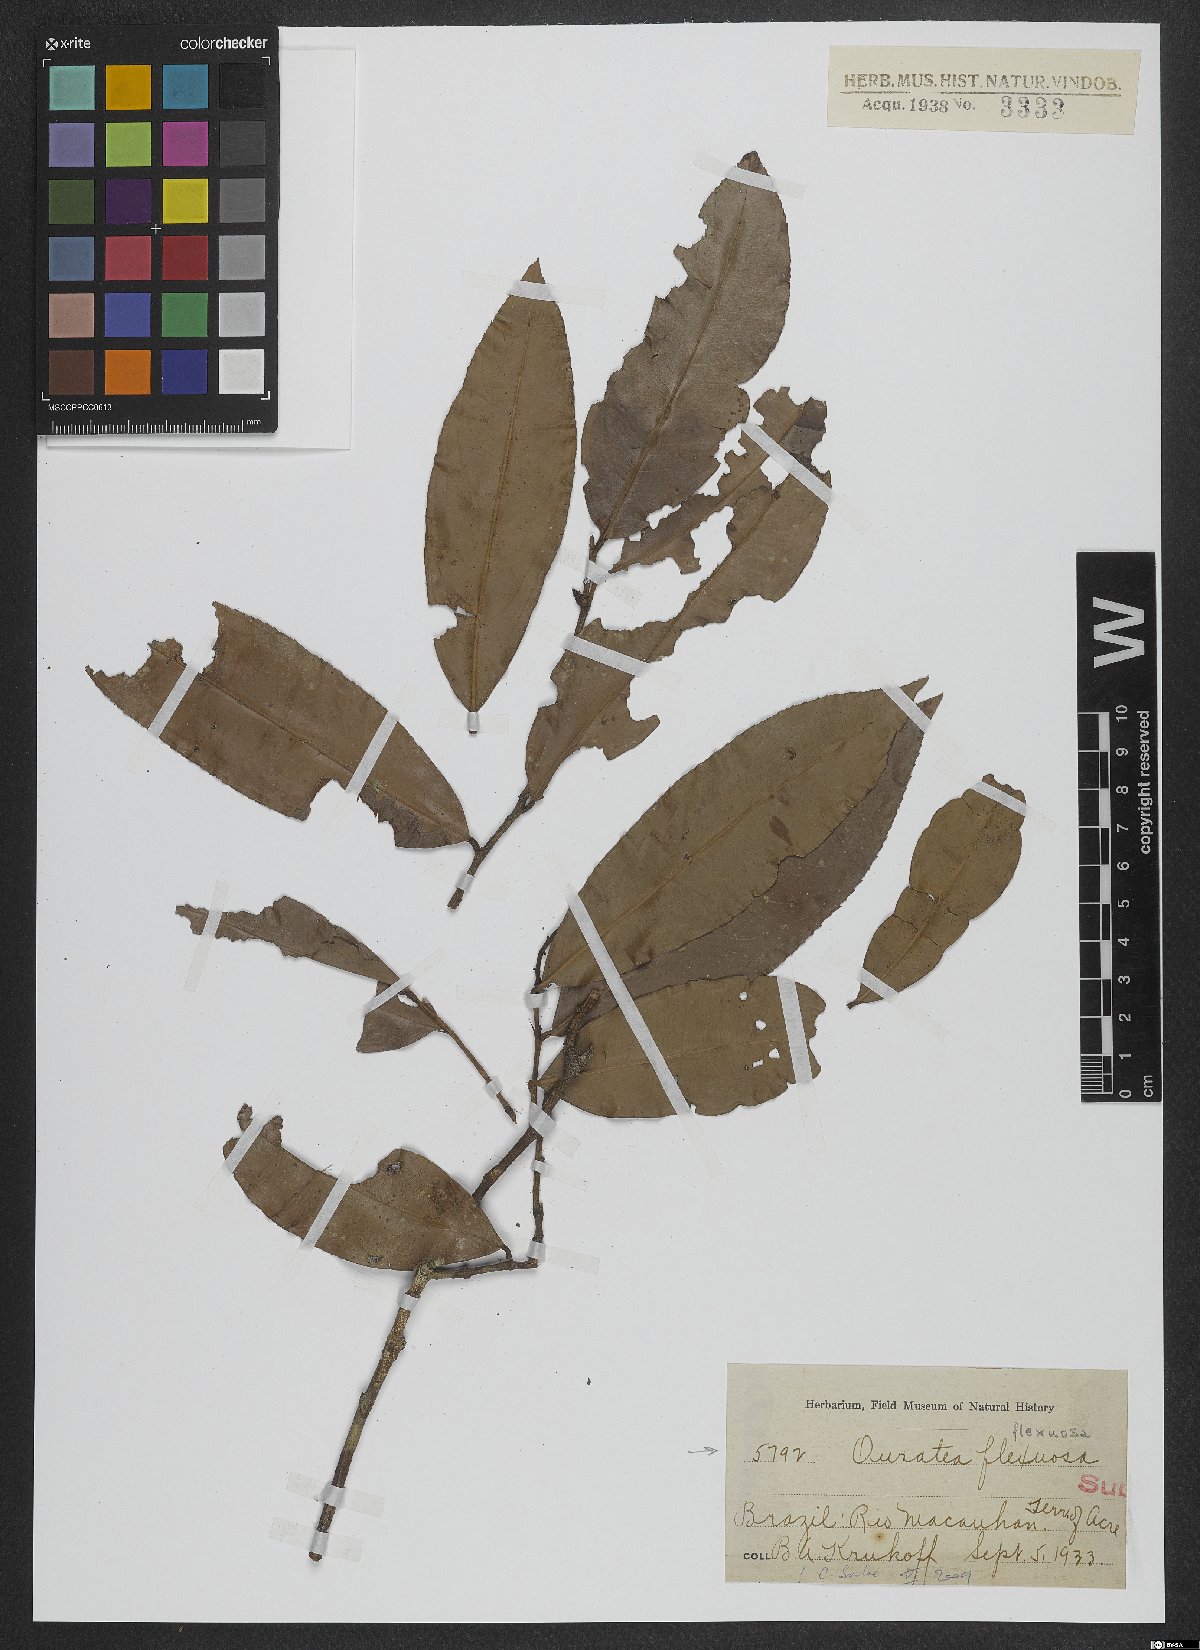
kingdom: Plantae
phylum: Tracheophyta
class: Magnoliopsida
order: Malpighiales
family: Ochnaceae
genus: Ouratea
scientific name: Ouratea flexuosa
